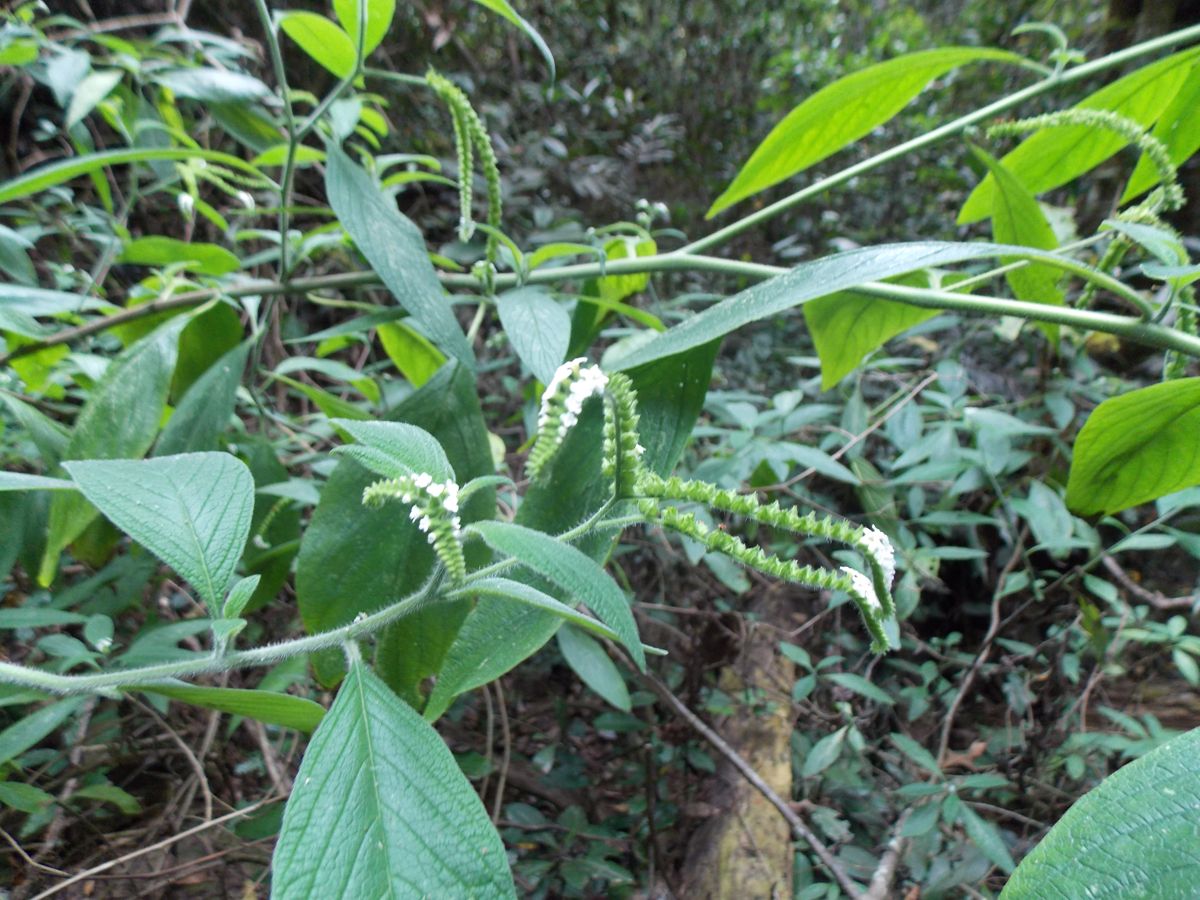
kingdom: Plantae
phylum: Tracheophyta
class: Magnoliopsida
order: Boraginales
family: Heliotropiaceae
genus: Heliotropium
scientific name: Heliotropium rufipilum
